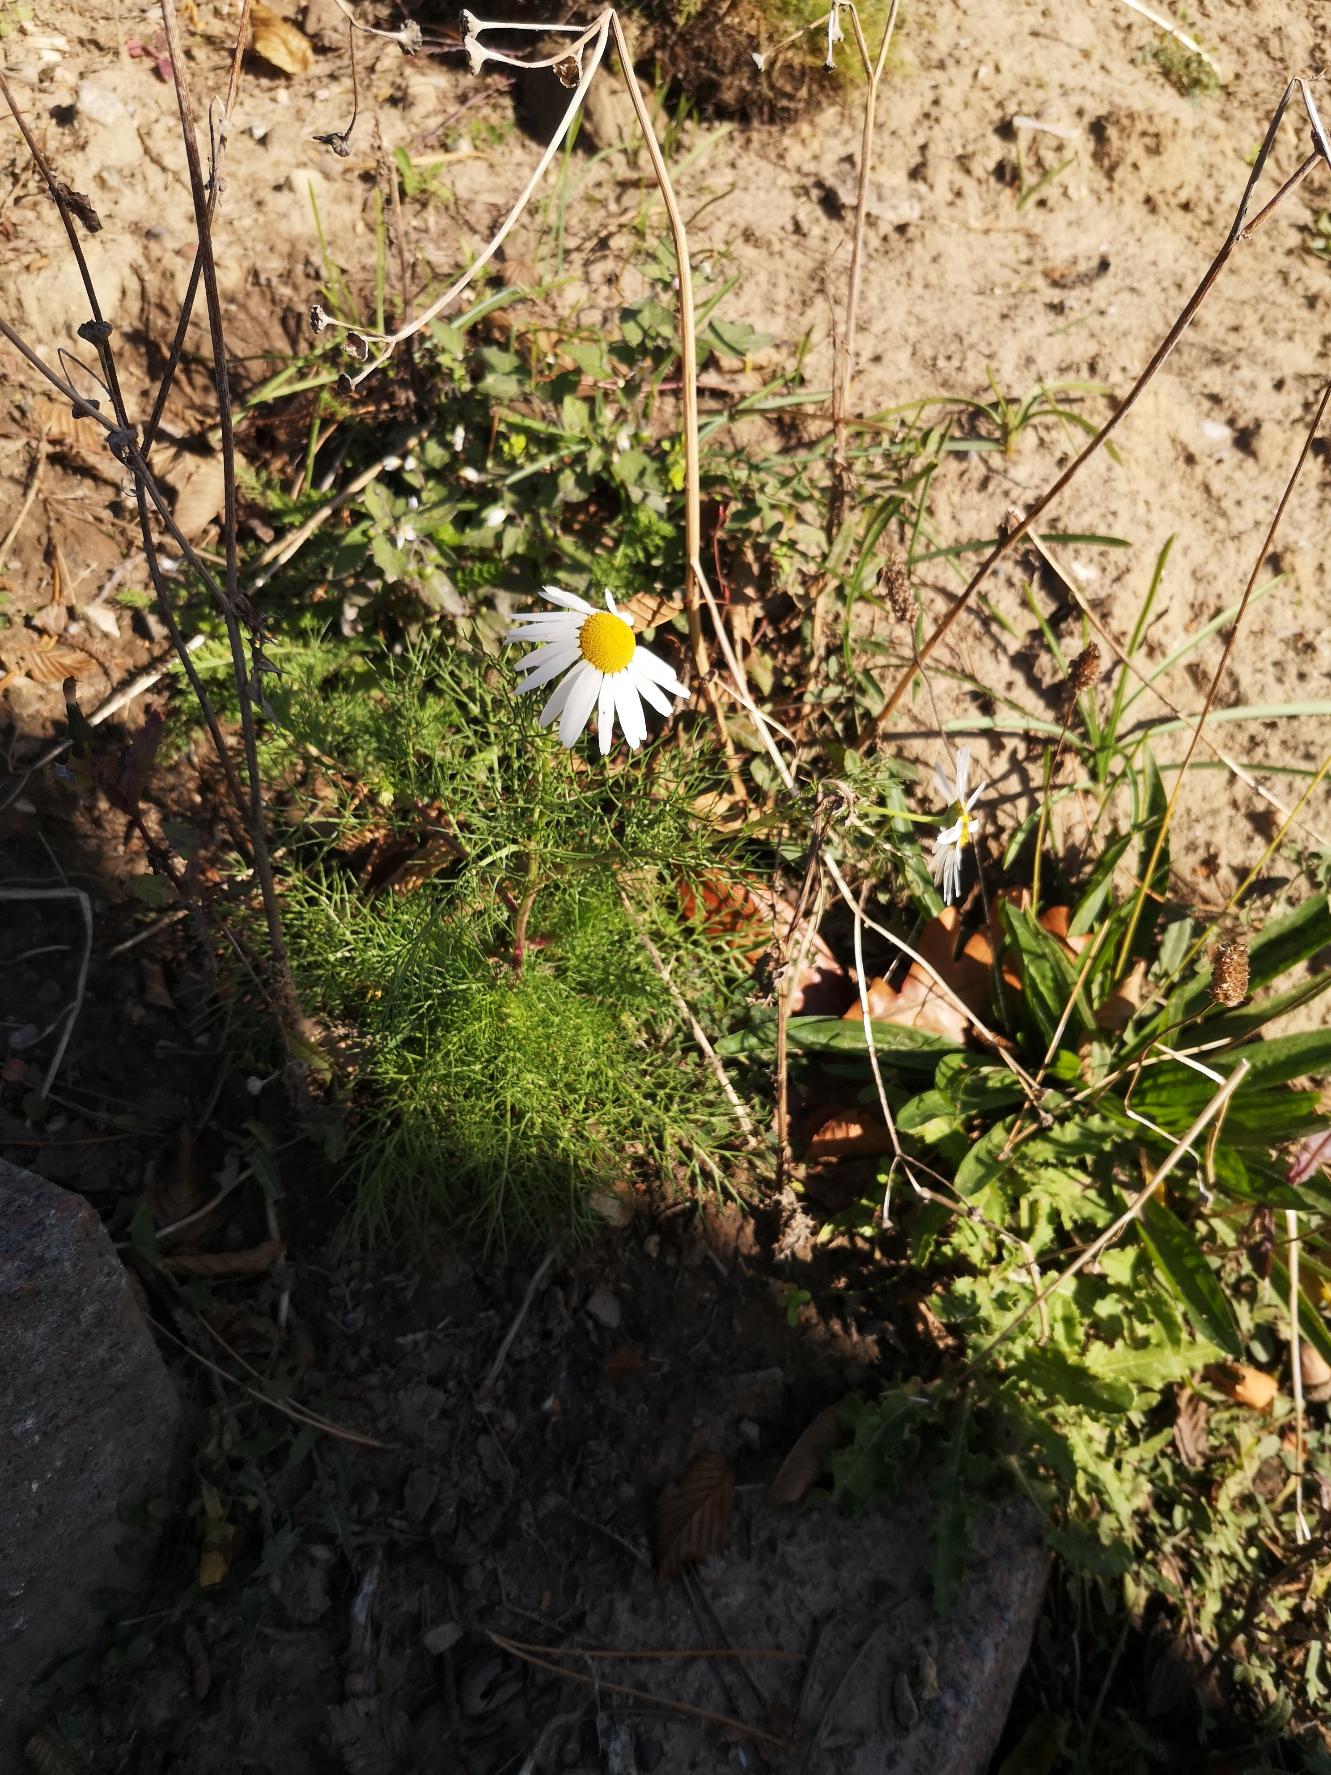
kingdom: Plantae
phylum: Tracheophyta
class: Magnoliopsida
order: Asterales
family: Asteraceae
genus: Tripleurospermum
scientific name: Tripleurospermum inodorum
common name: Lugtløs kamille
